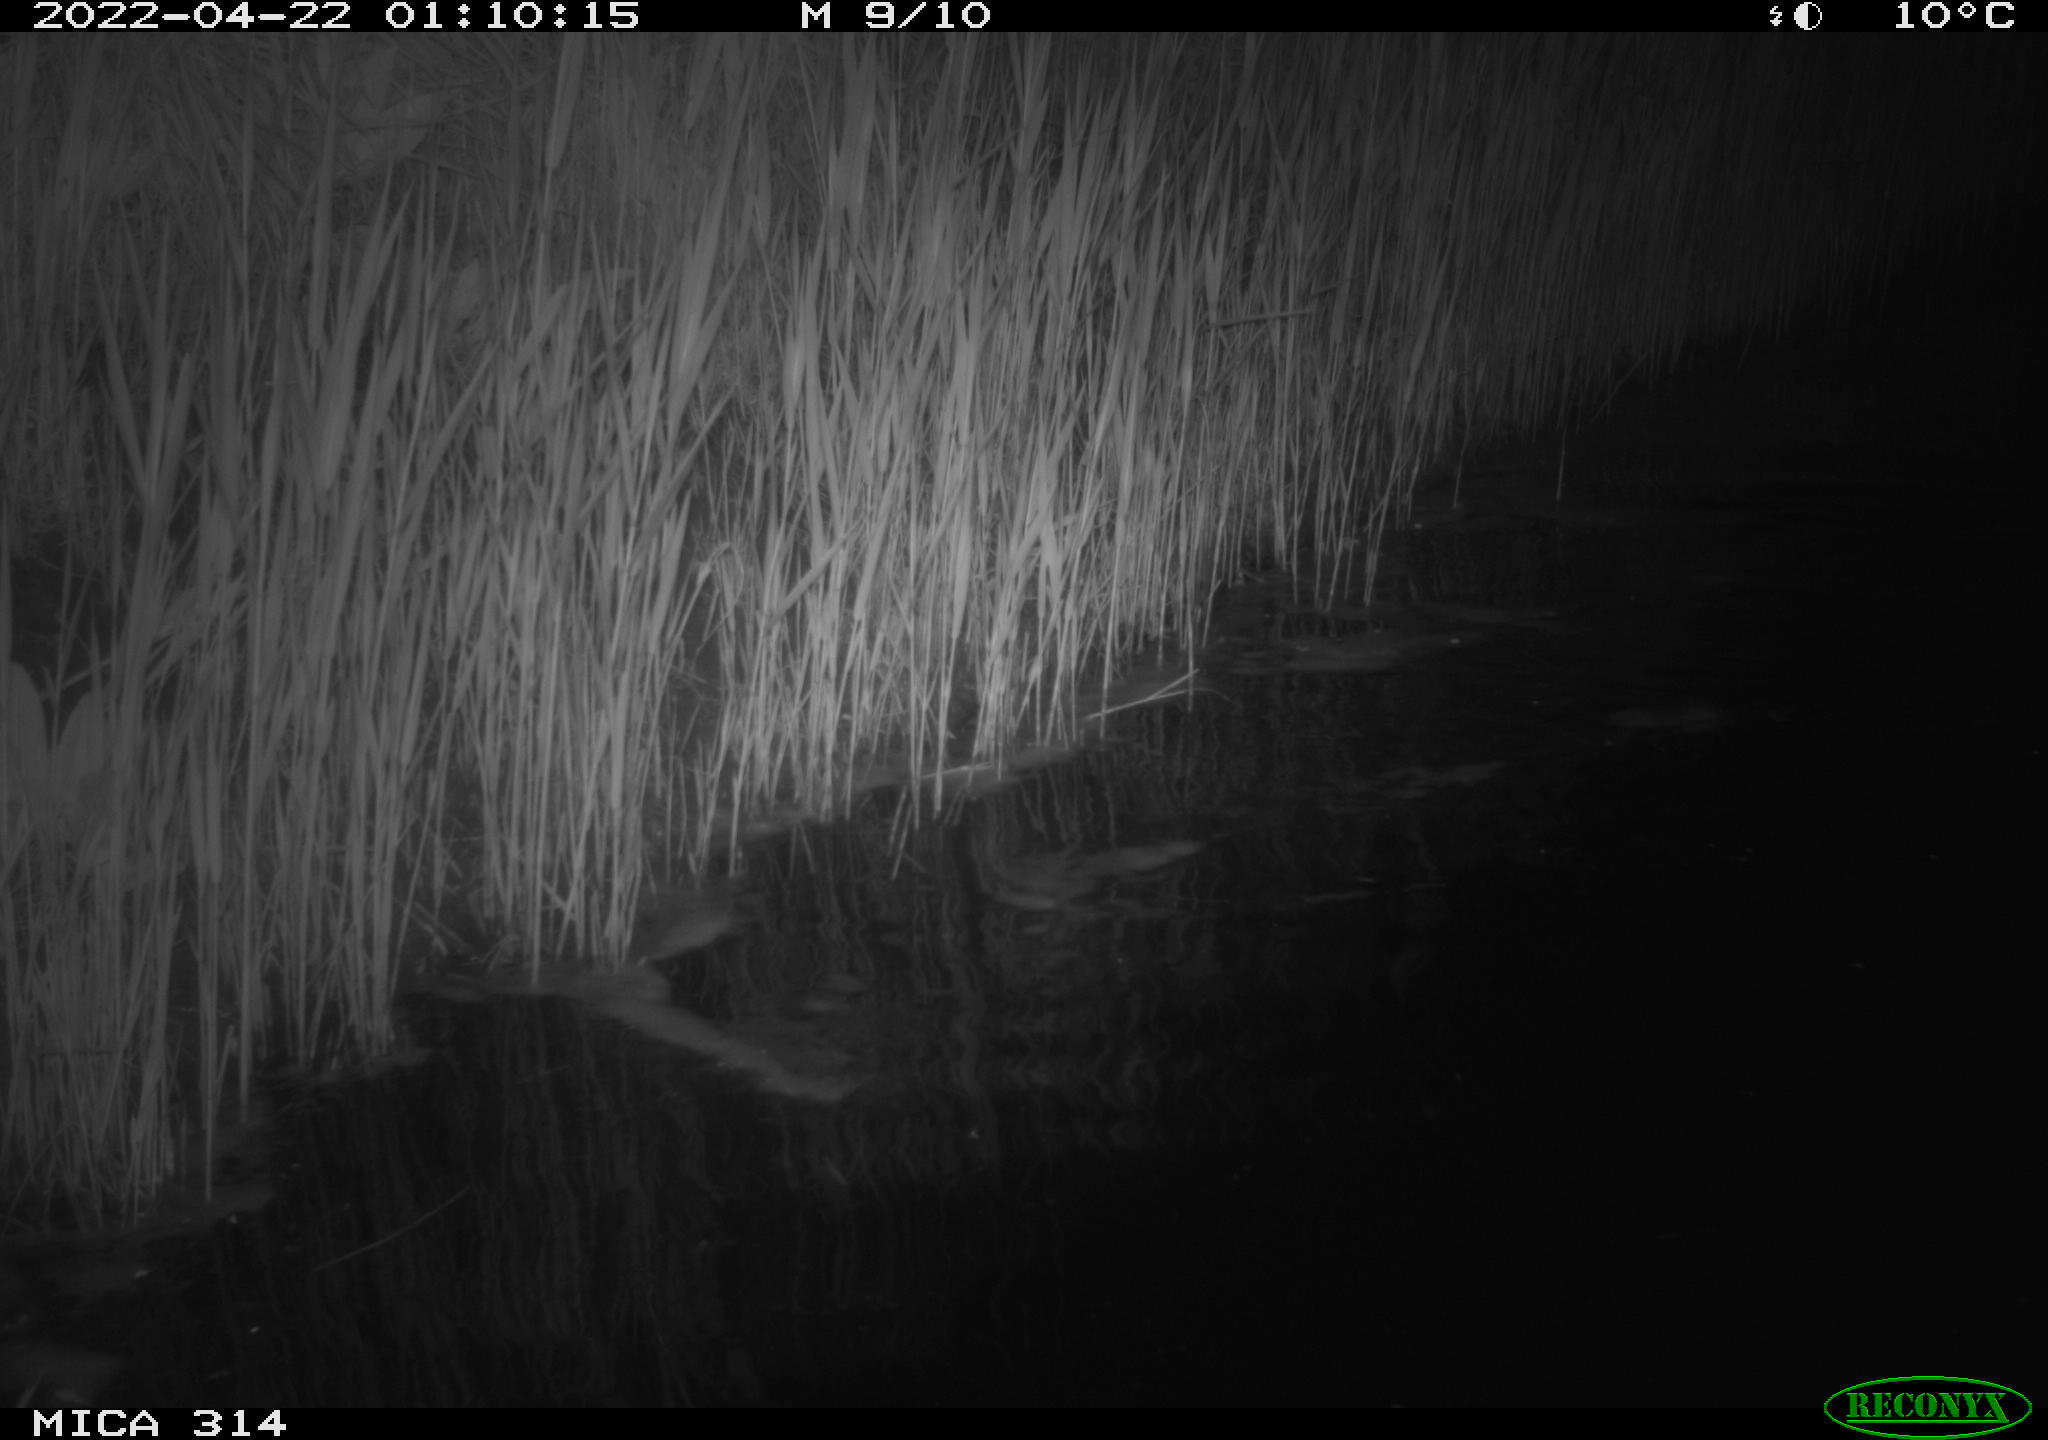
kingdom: Animalia
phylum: Chordata
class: Aves
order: Anseriformes
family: Anatidae
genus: Anas
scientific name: Anas platyrhynchos
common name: Mallard
